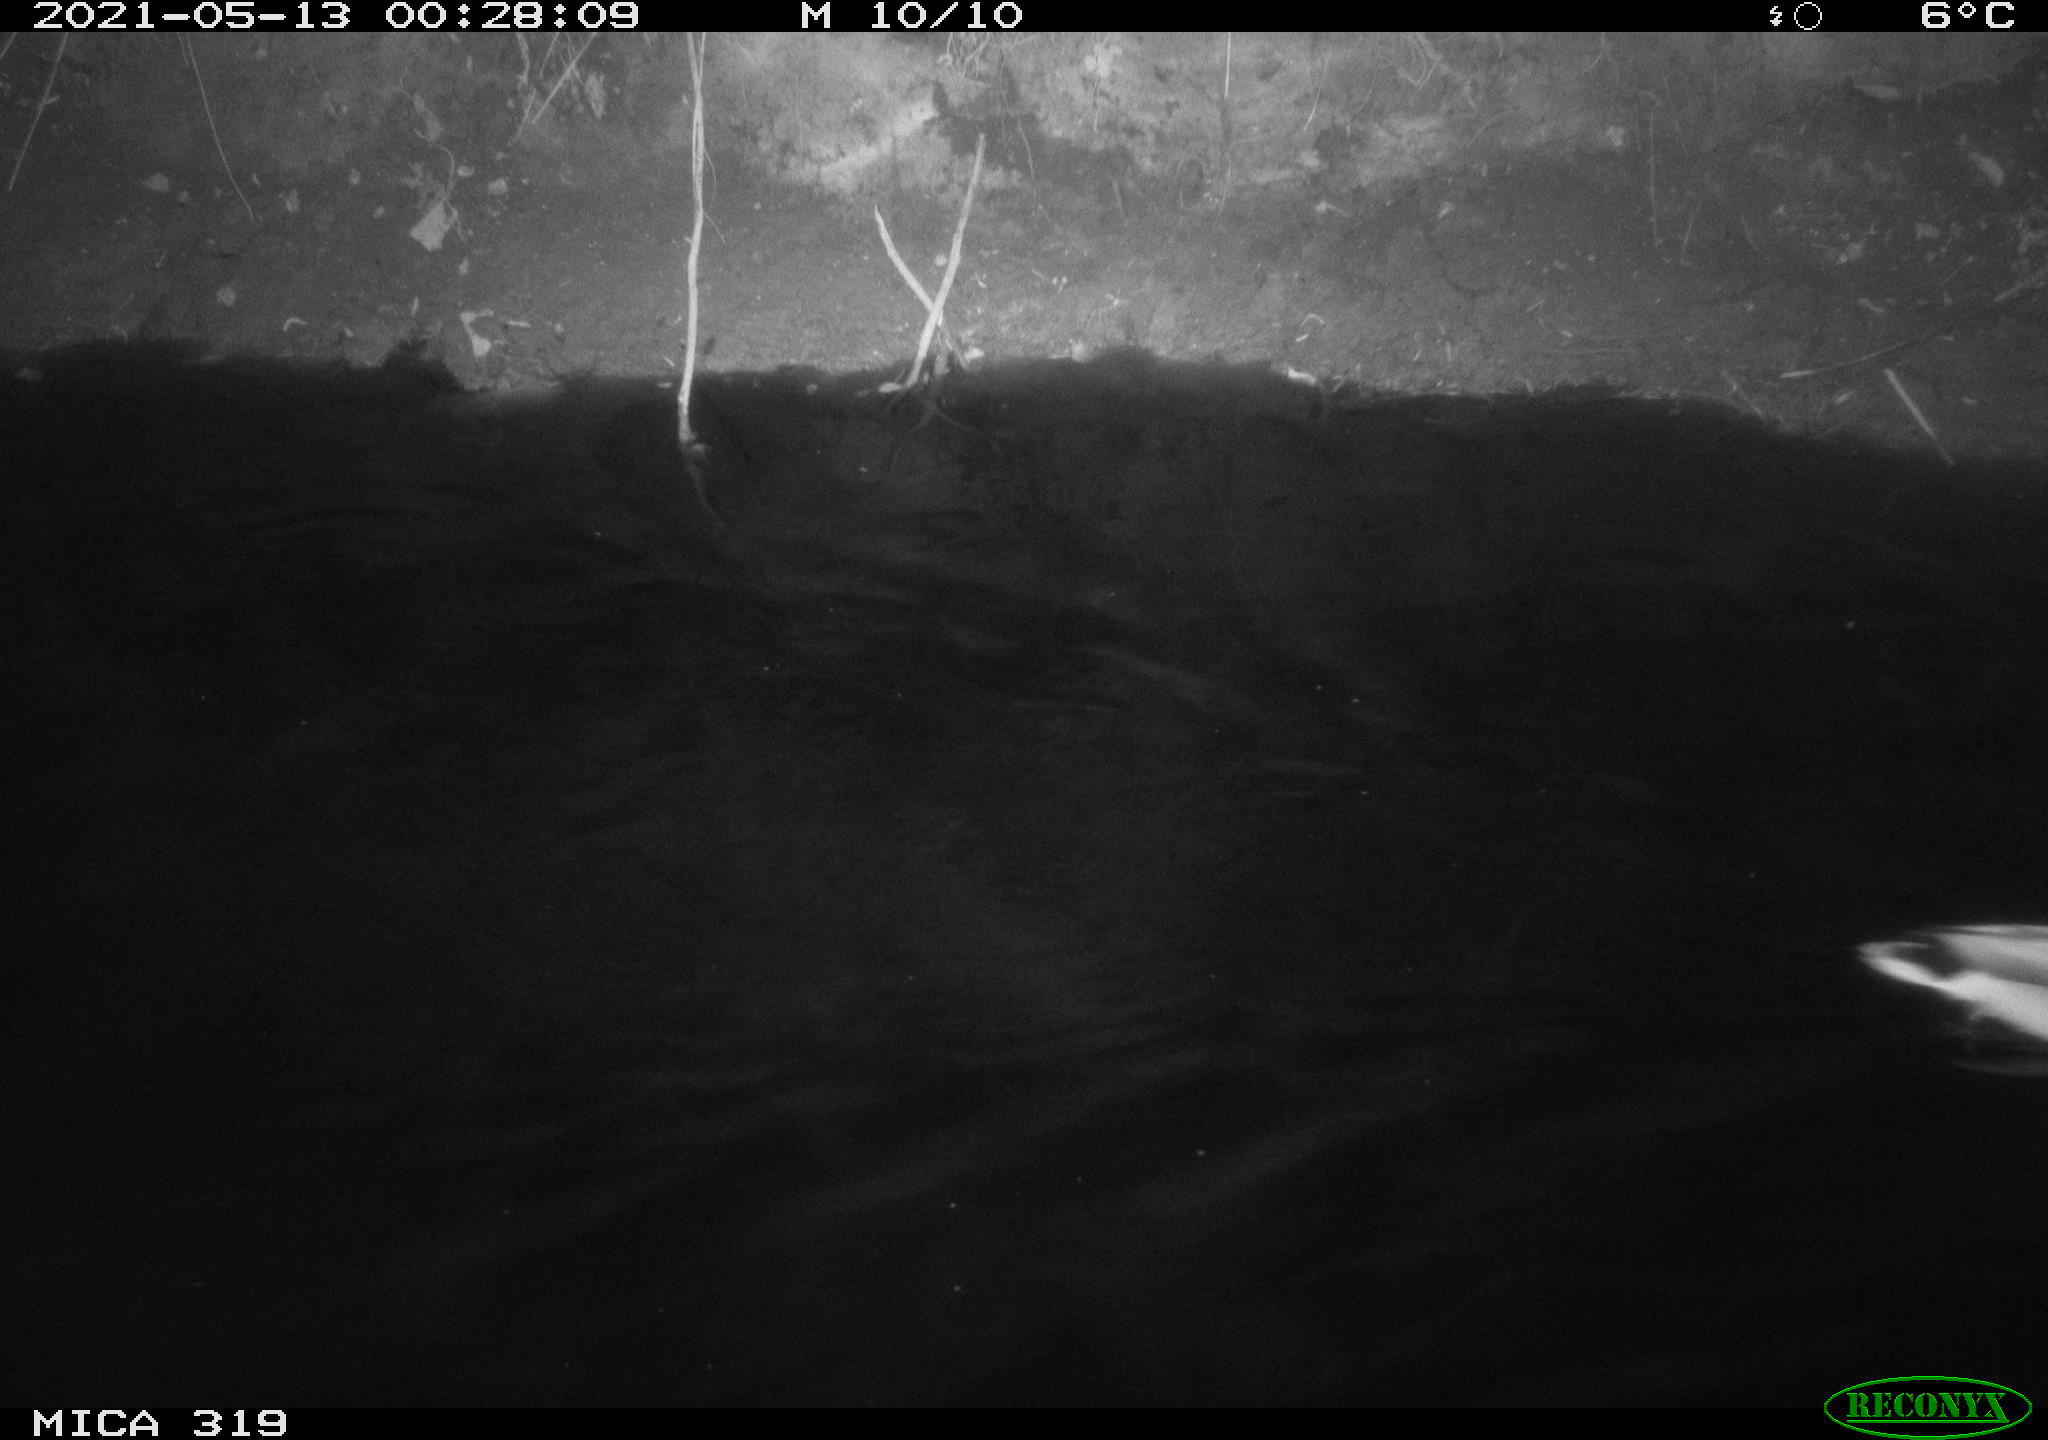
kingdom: Animalia
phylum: Chordata
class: Aves
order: Anseriformes
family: Anatidae
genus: Anas
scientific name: Anas platyrhynchos
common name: Mallard
